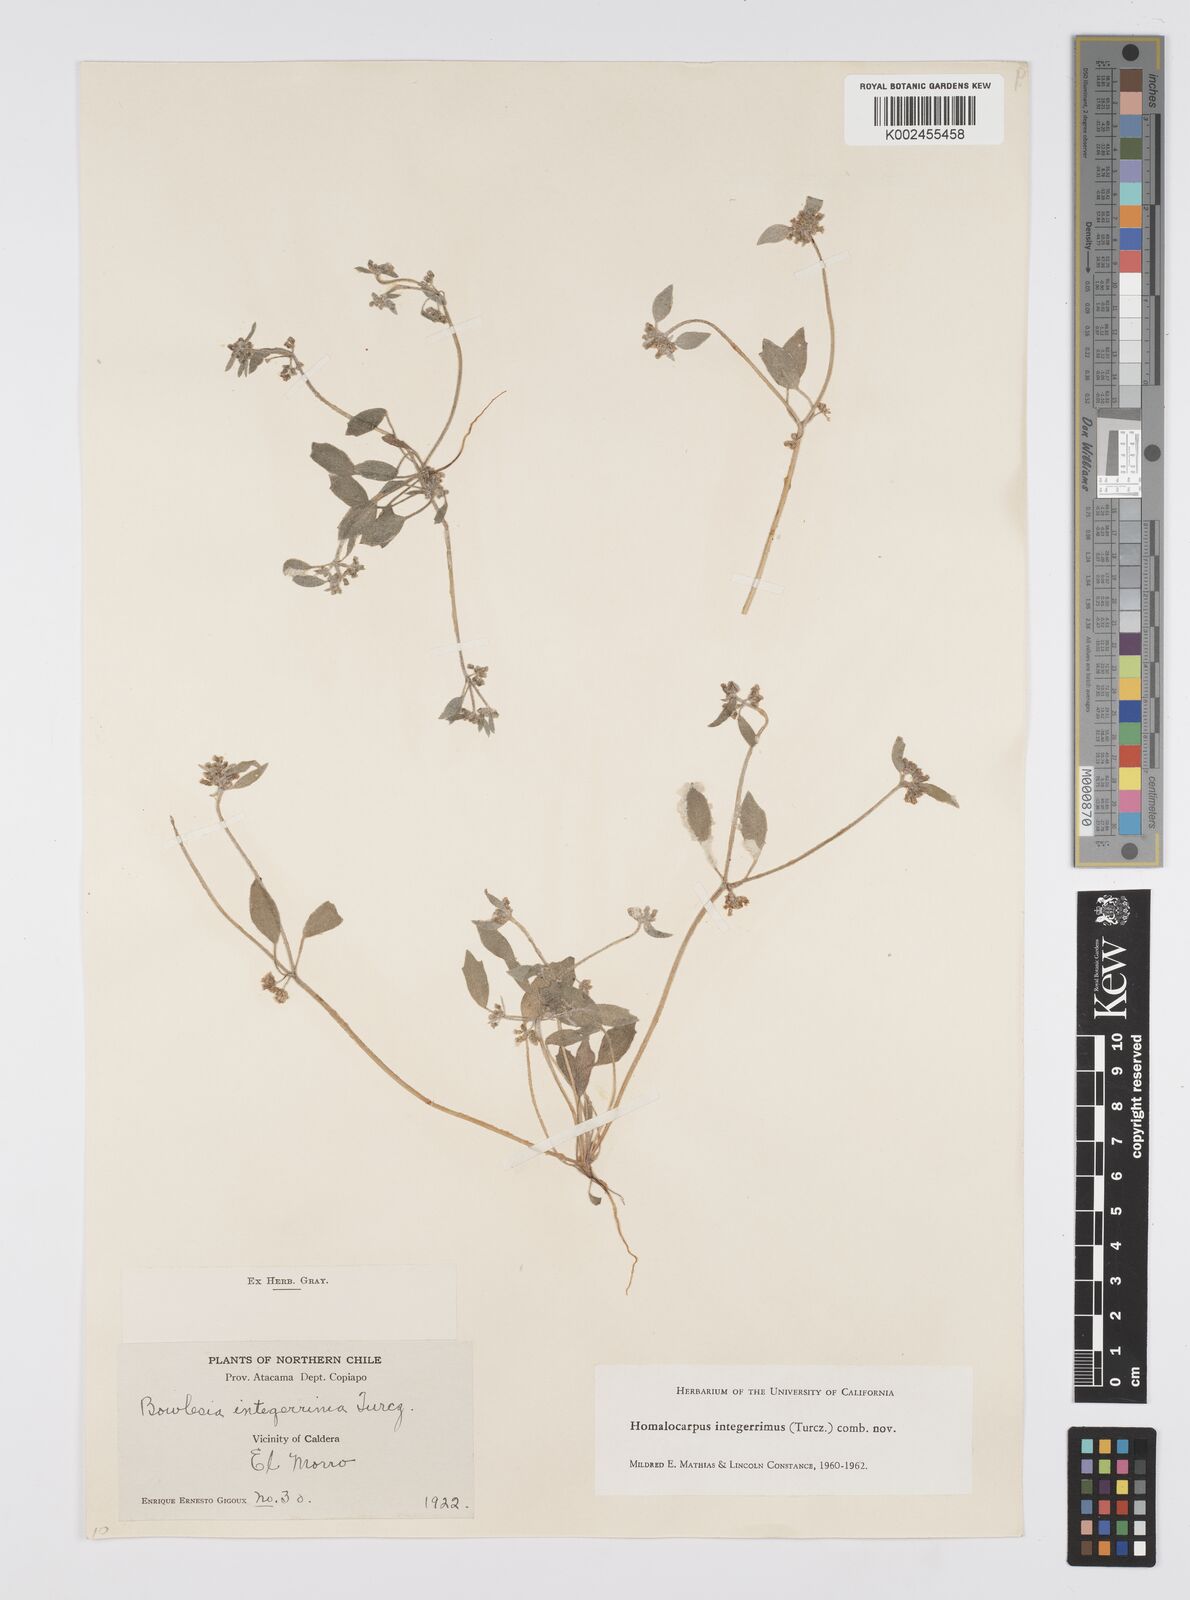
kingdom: Plantae
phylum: Tracheophyta
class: Magnoliopsida
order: Apiales
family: Apiaceae
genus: Homalocarpus
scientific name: Homalocarpus integerrimus
